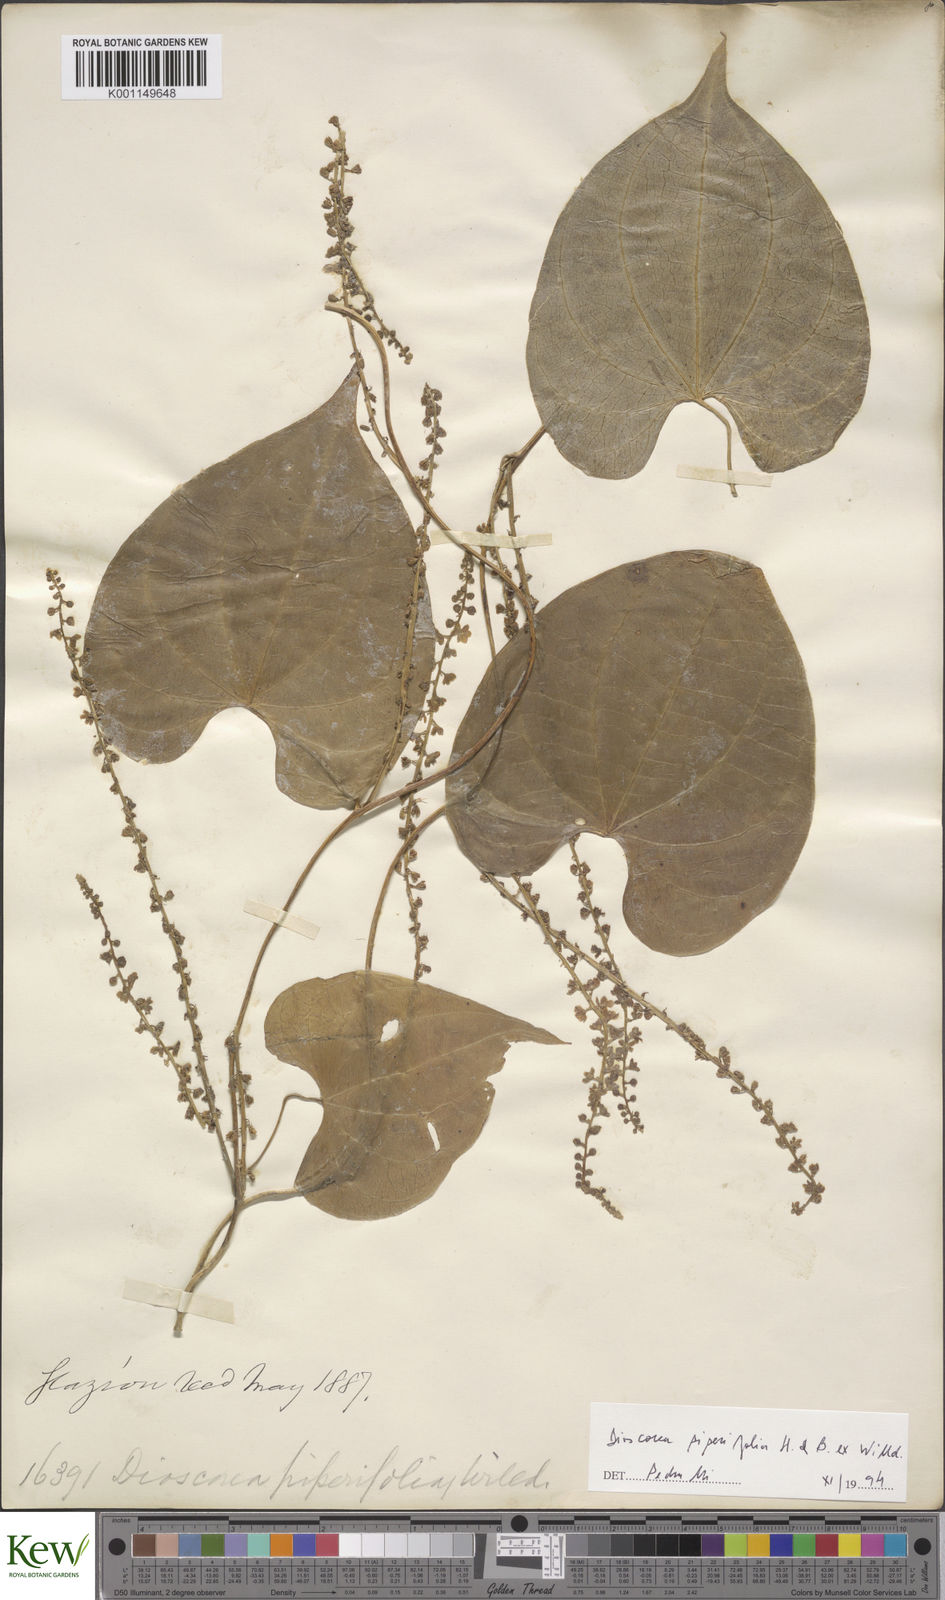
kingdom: Plantae
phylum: Tracheophyta
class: Liliopsida
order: Dioscoreales
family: Dioscoreaceae
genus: Dioscorea
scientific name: Dioscorea glandulosa
